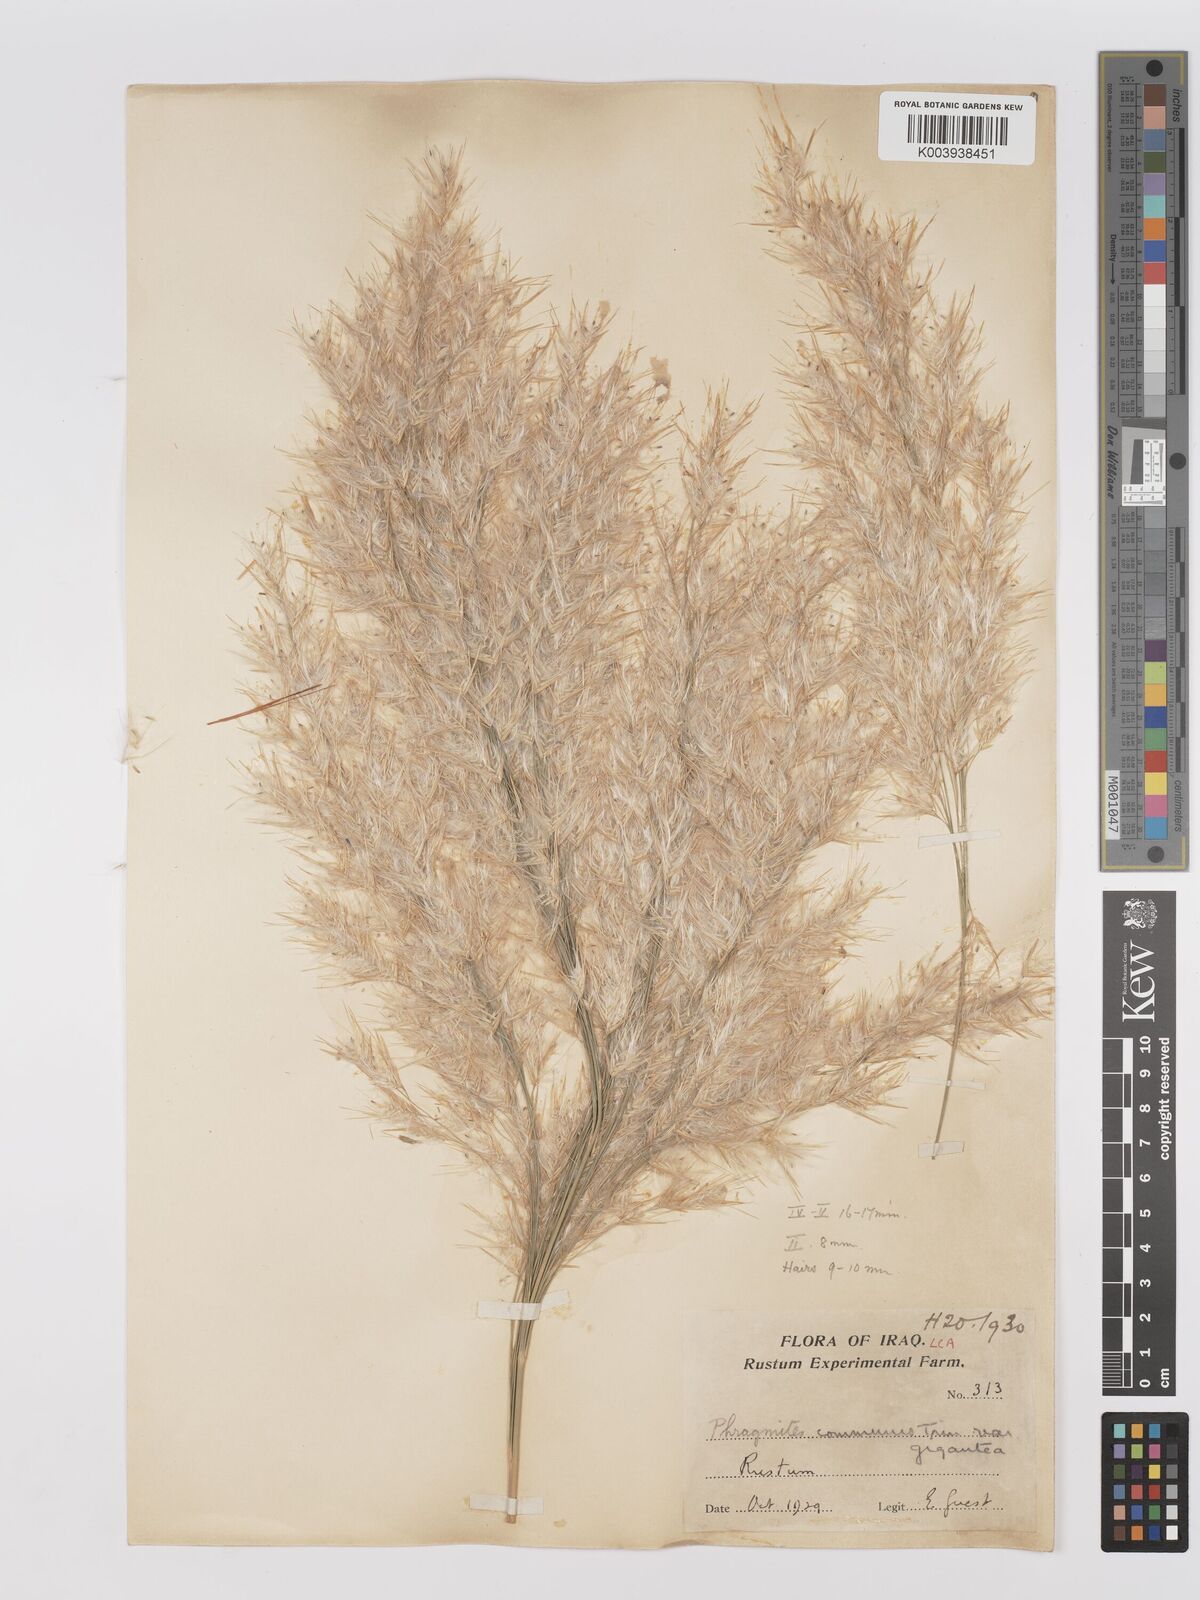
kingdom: Plantae
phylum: Tracheophyta
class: Liliopsida
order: Poales
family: Poaceae
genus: Phragmites
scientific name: Phragmites australis
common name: Common reed
